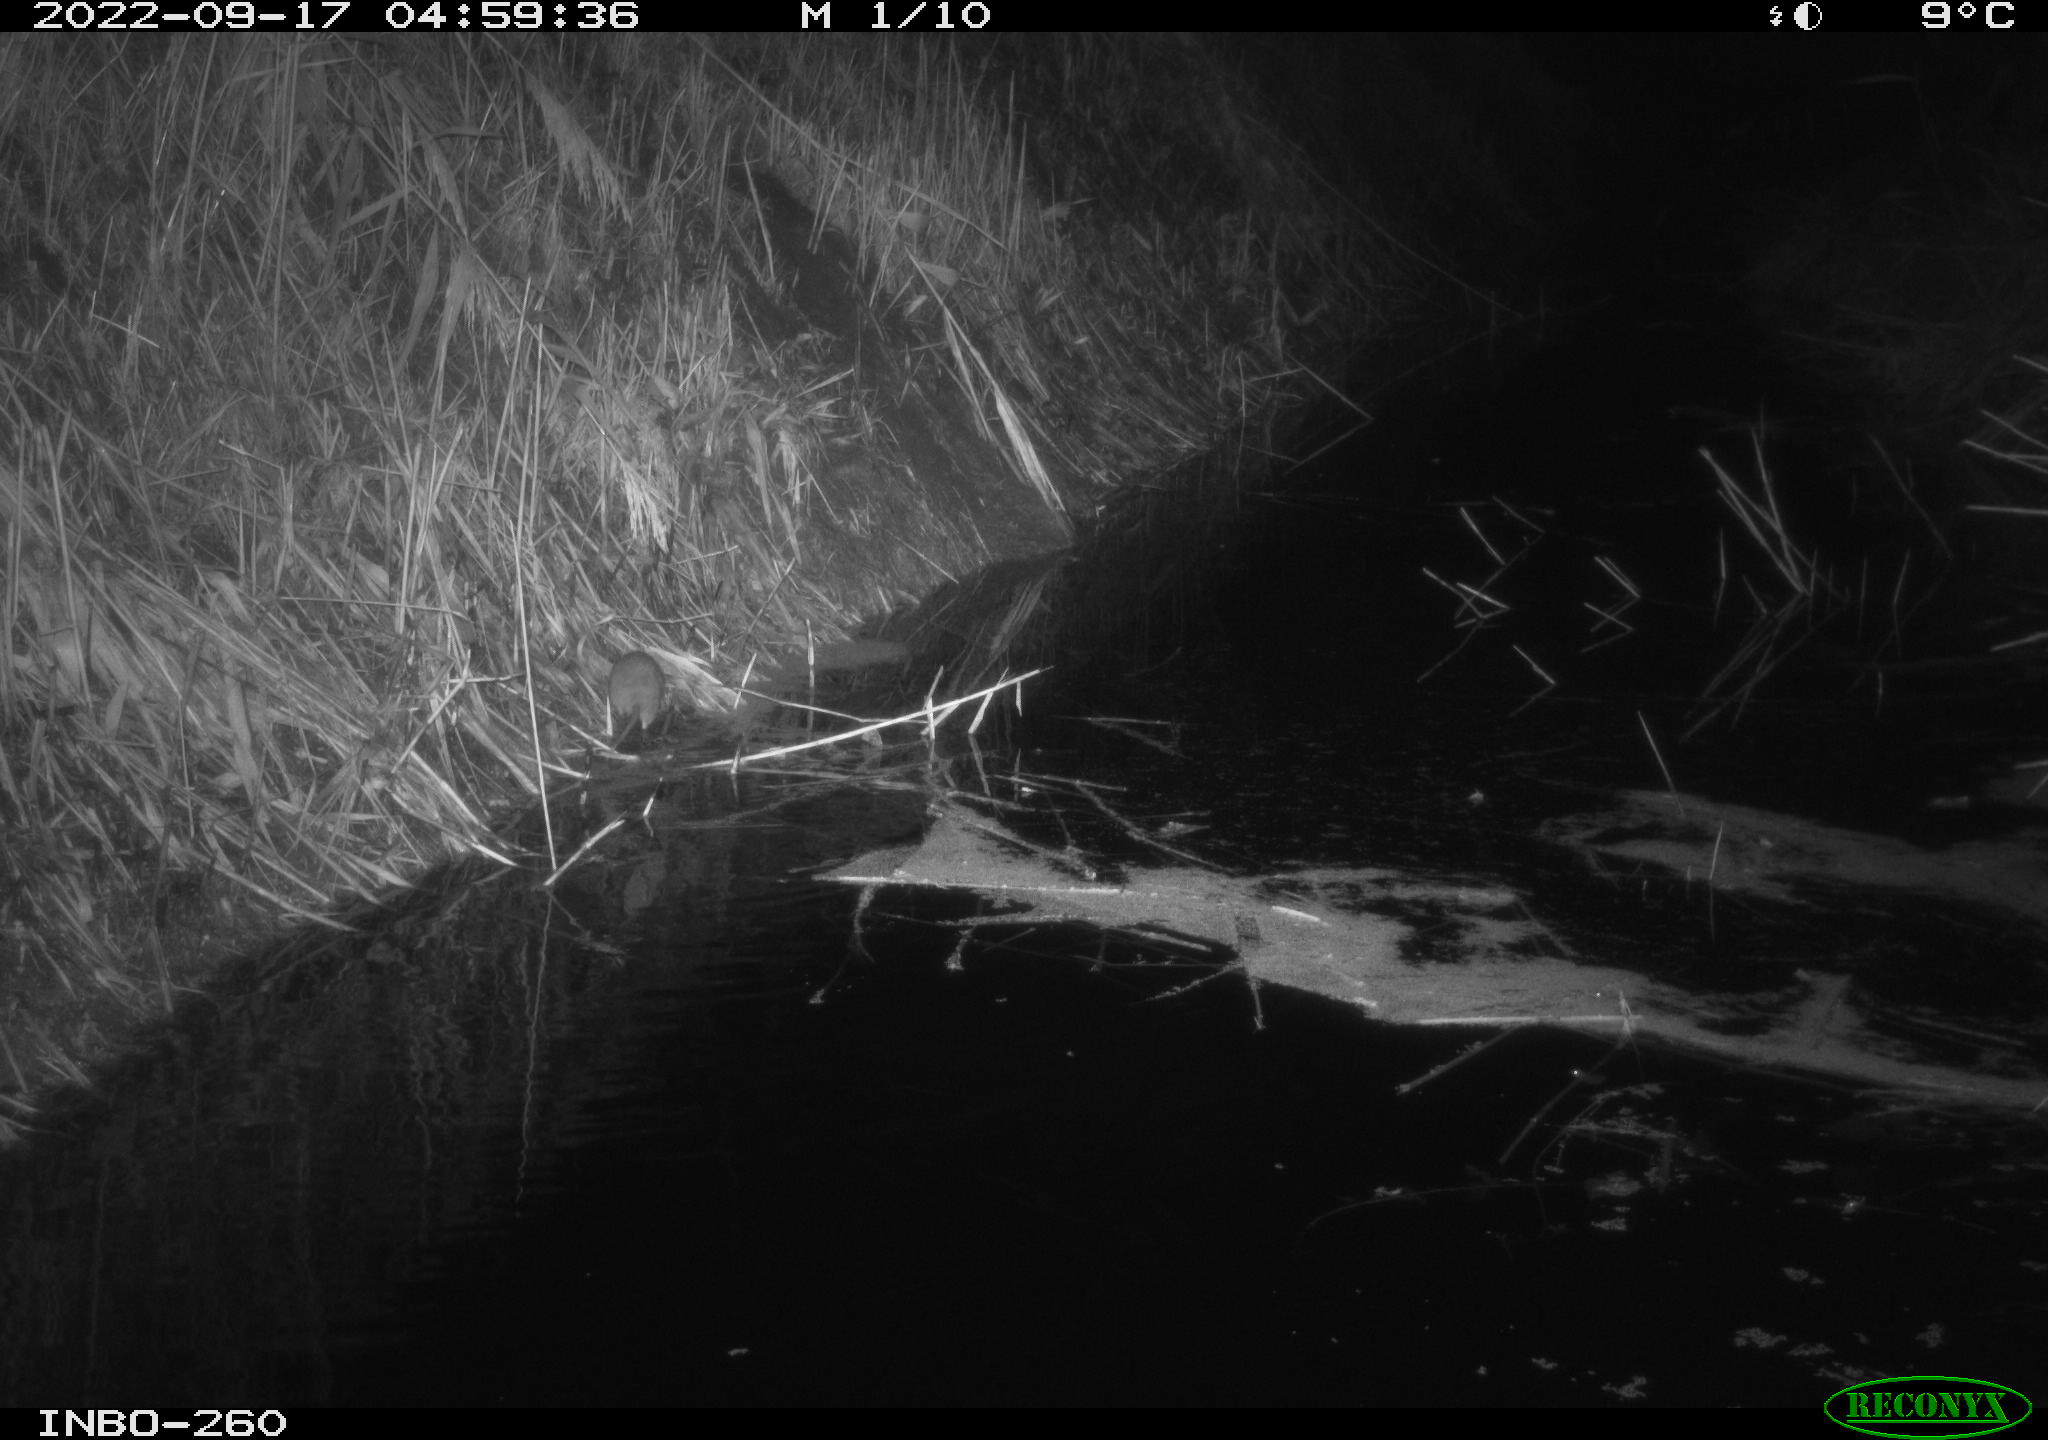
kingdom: Animalia
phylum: Chordata
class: Mammalia
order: Rodentia
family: Muridae
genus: Rattus
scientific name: Rattus norvegicus
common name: Brown rat
